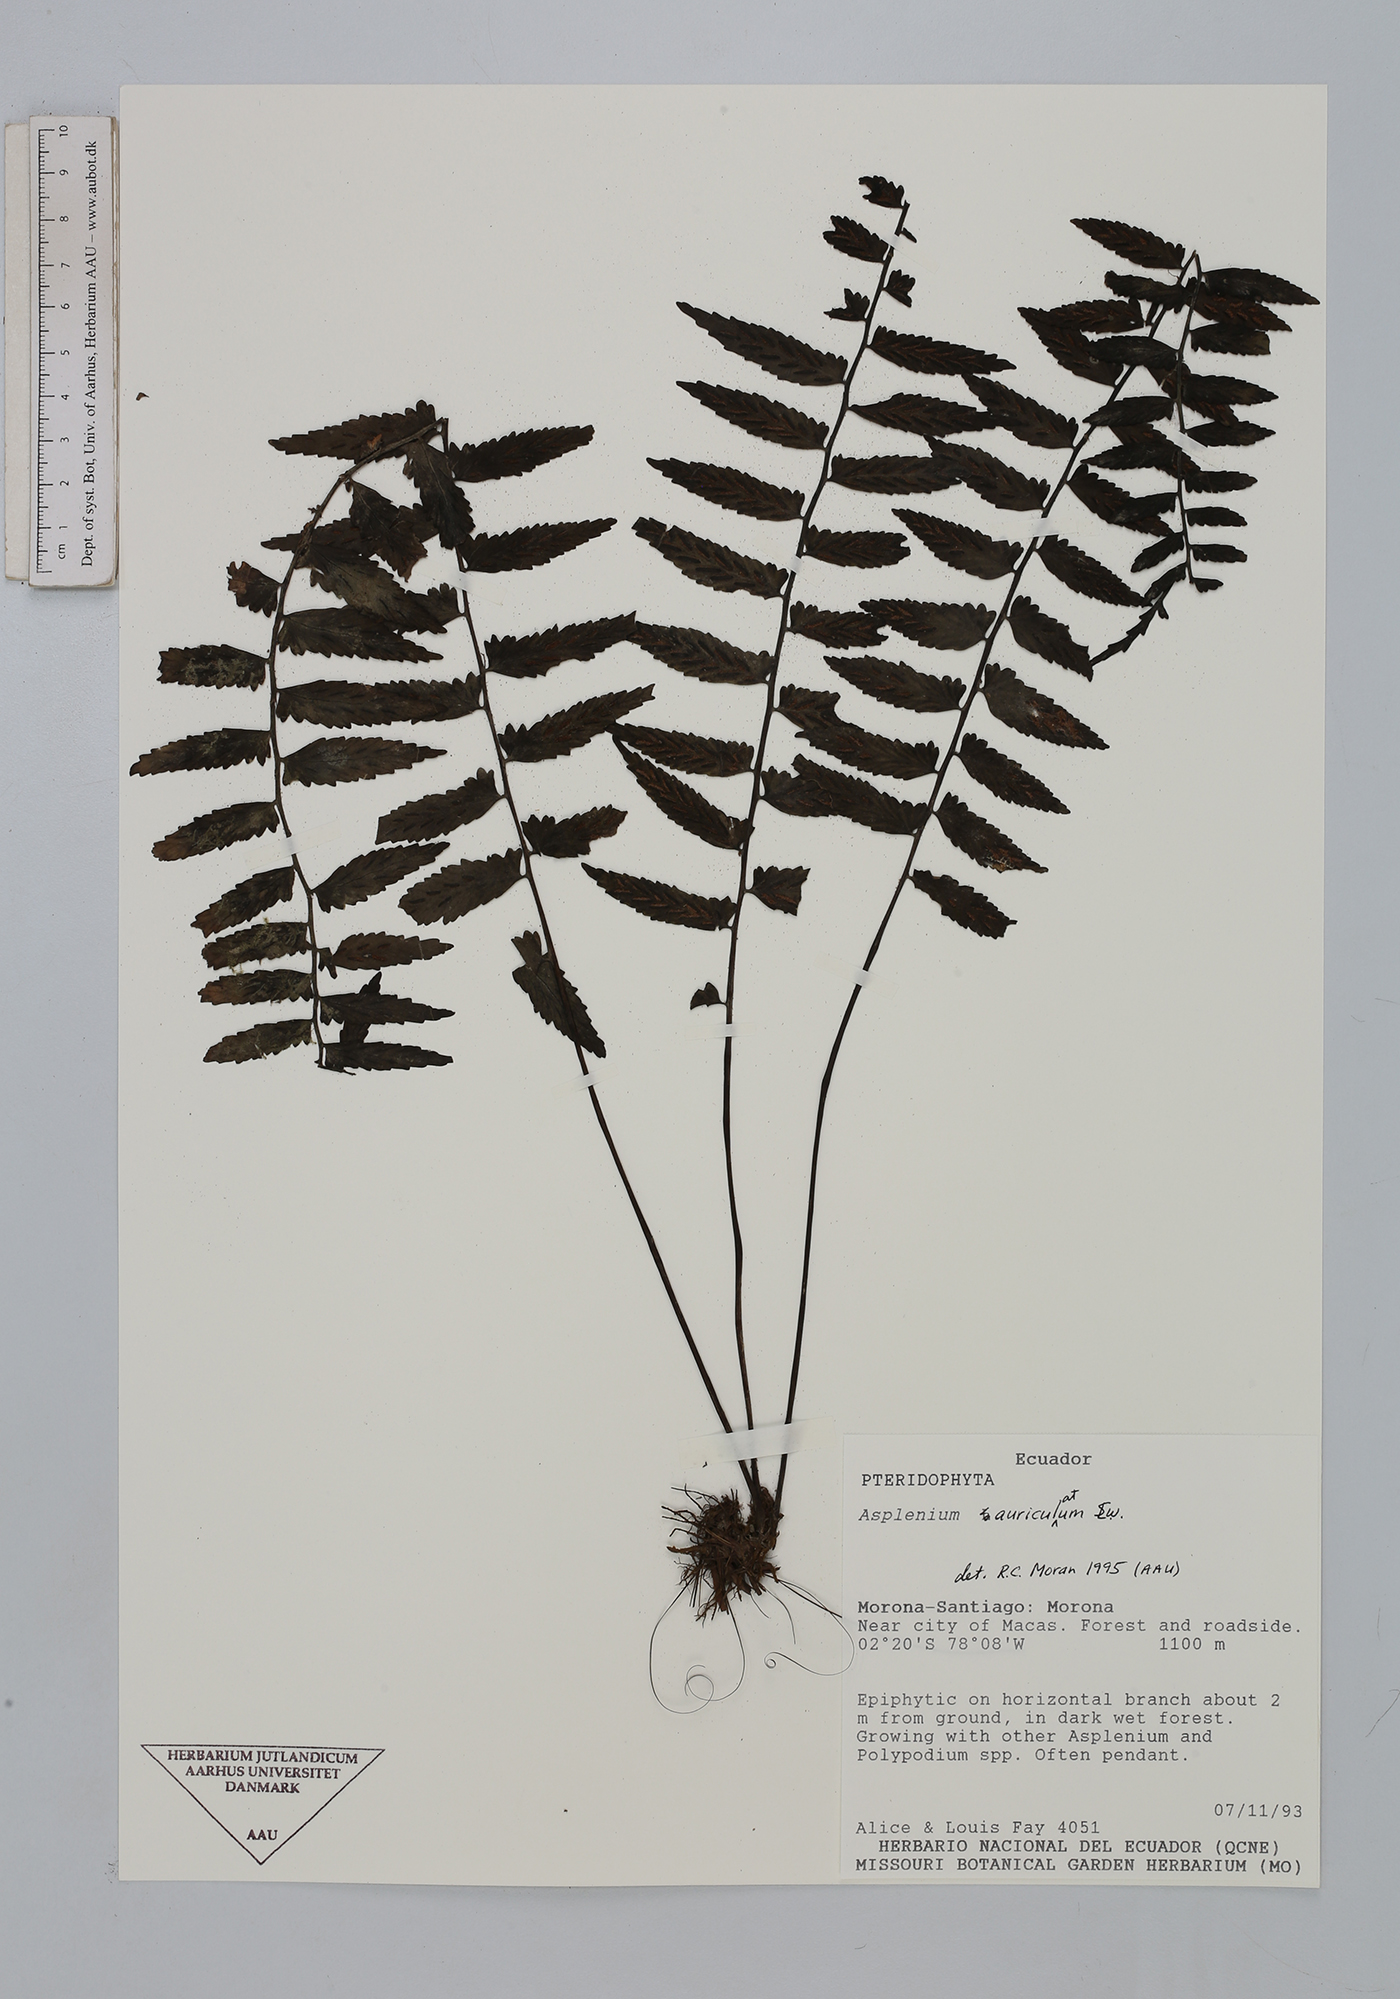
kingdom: Plantae
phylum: Tracheophyta
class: Polypodiopsida
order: Polypodiales
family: Aspleniaceae
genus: Asplenium
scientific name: Asplenium auriculatum
